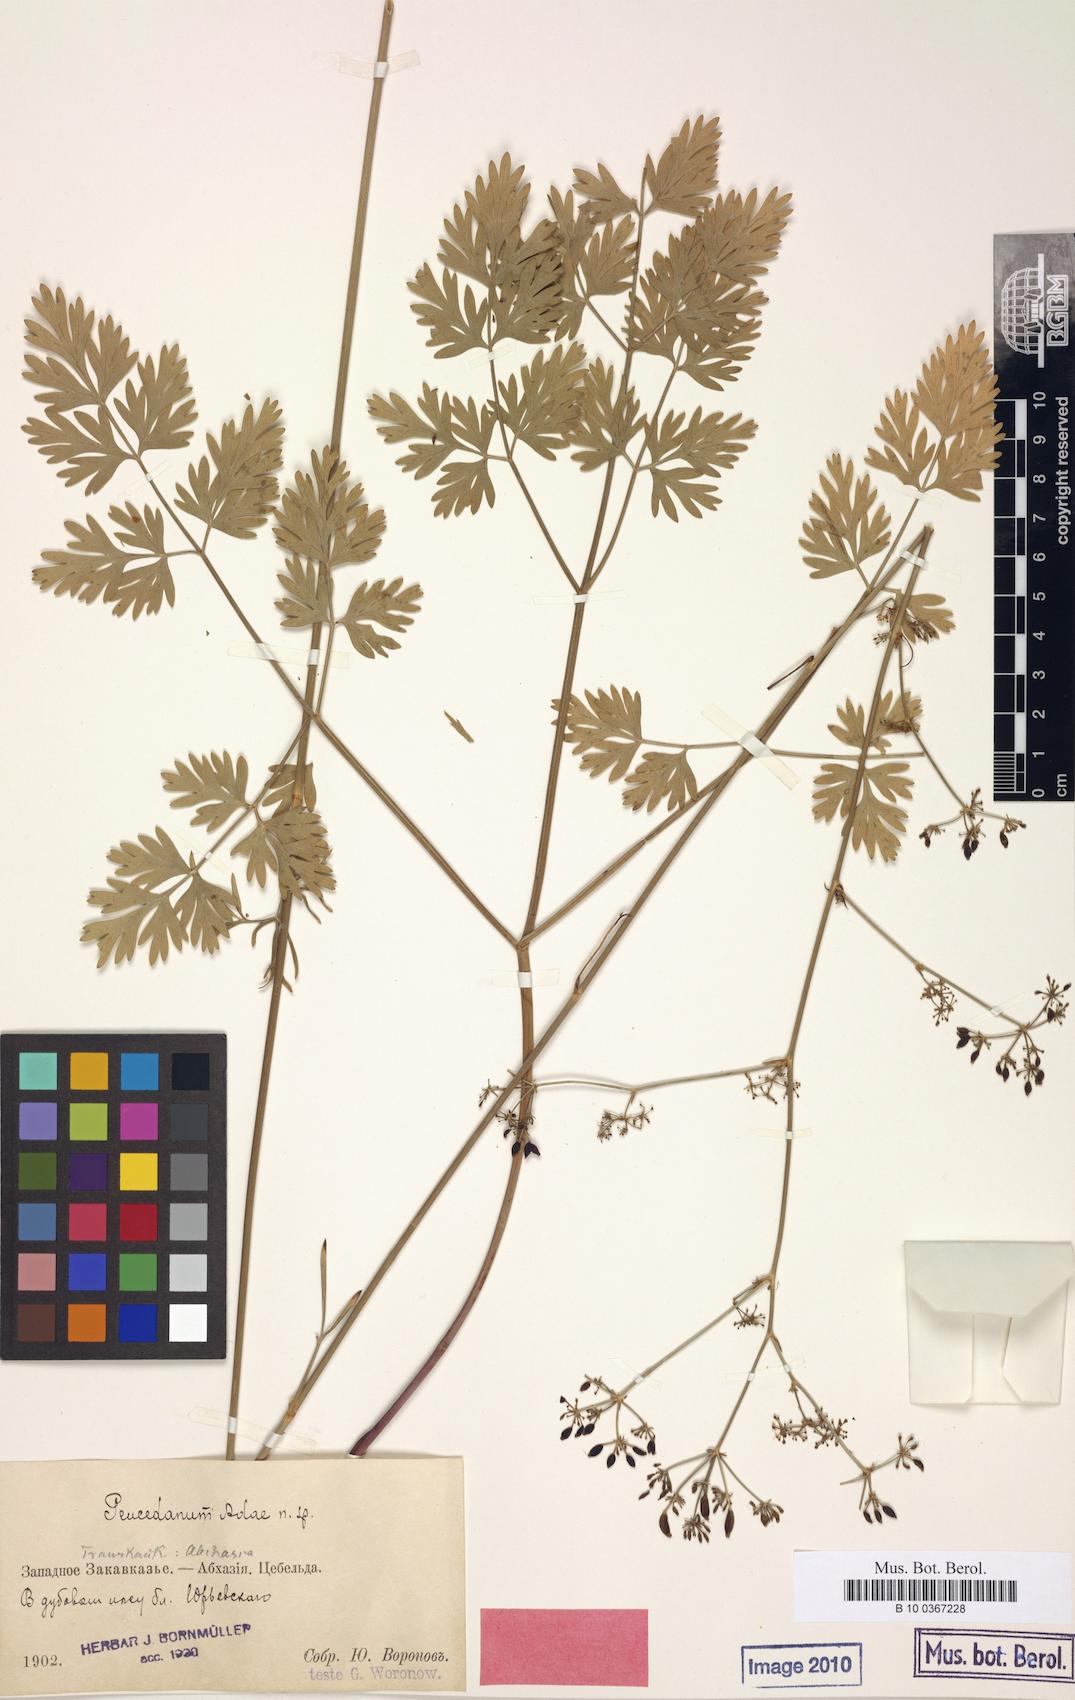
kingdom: Plantae
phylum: Tracheophyta
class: Magnoliopsida
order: Apiales
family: Apiaceae
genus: Peucedanum
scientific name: Peucedanum adae
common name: Ada's hog's-fennel
